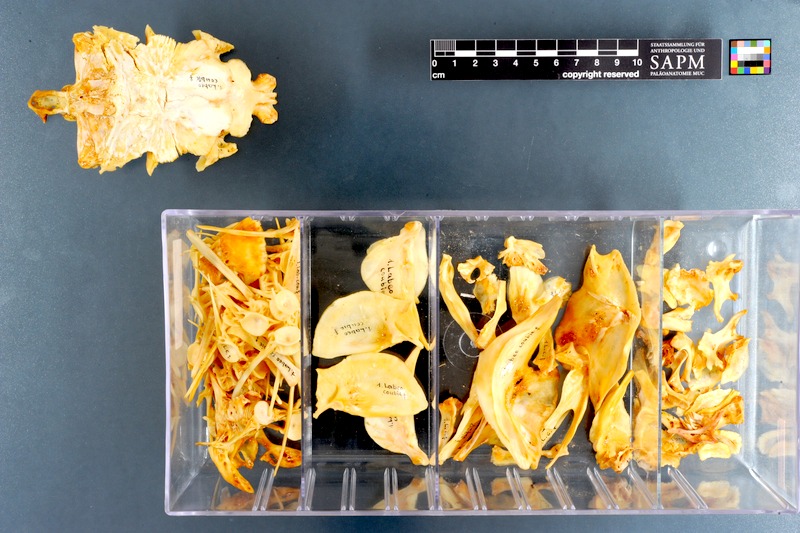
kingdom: Animalia
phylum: Chordata
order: Cypriniformes
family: Cyprinidae
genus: Labeo
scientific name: Labeo coubie
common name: African carp
